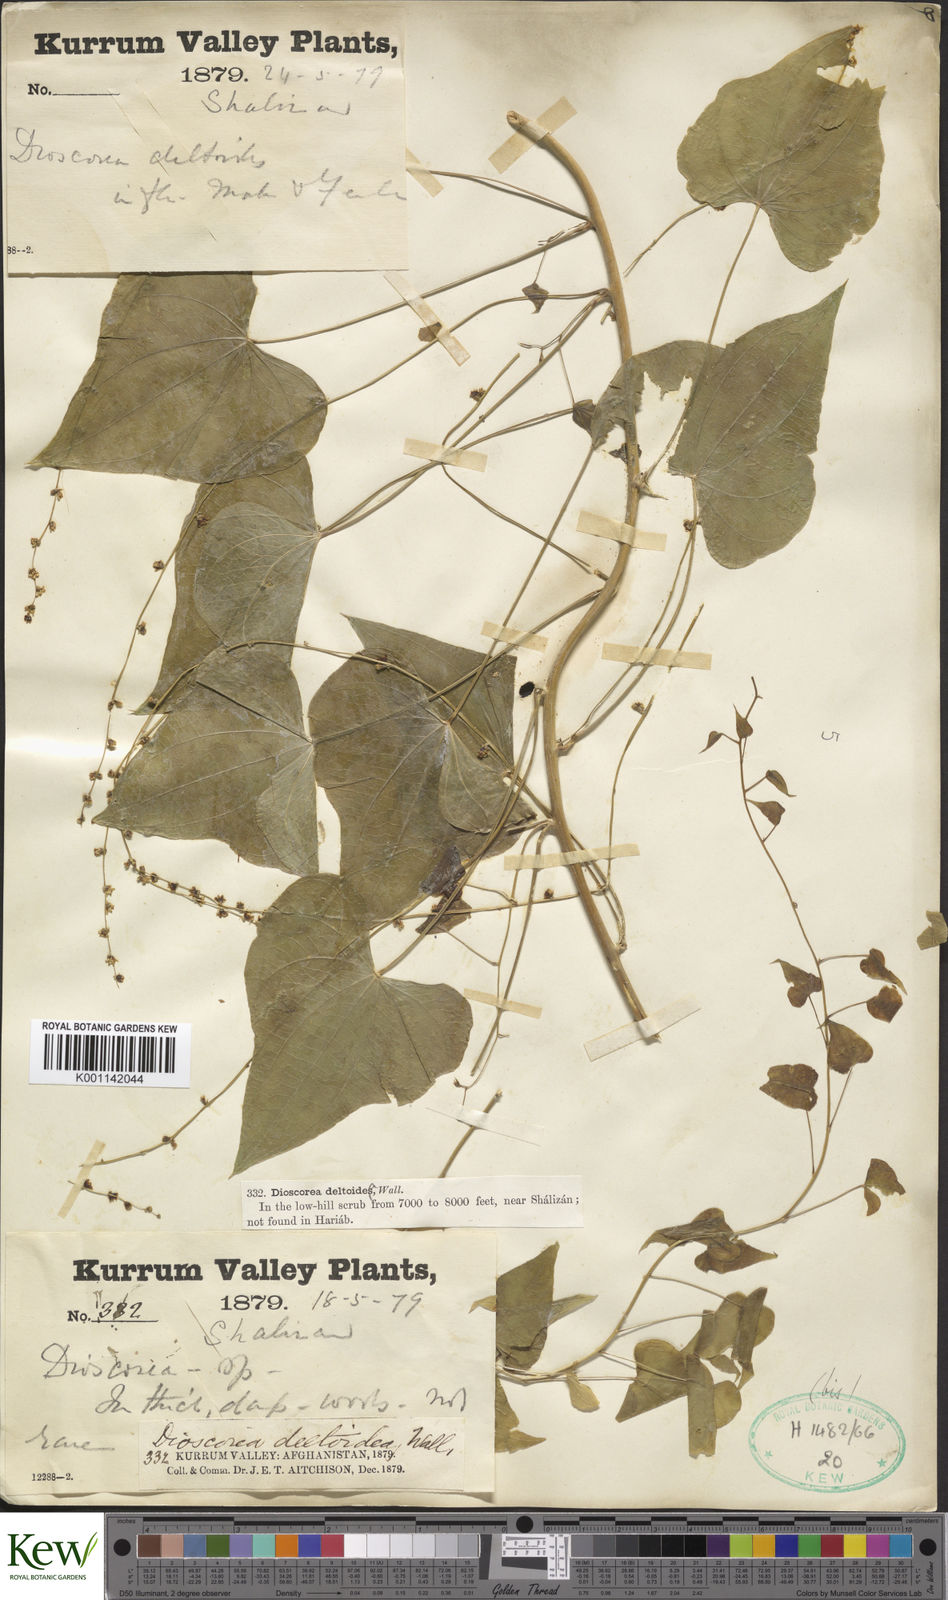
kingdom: Plantae
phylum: Tracheophyta
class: Liliopsida
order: Dioscoreales
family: Dioscoreaceae
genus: Dioscorea
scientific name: Dioscorea deltoidea
